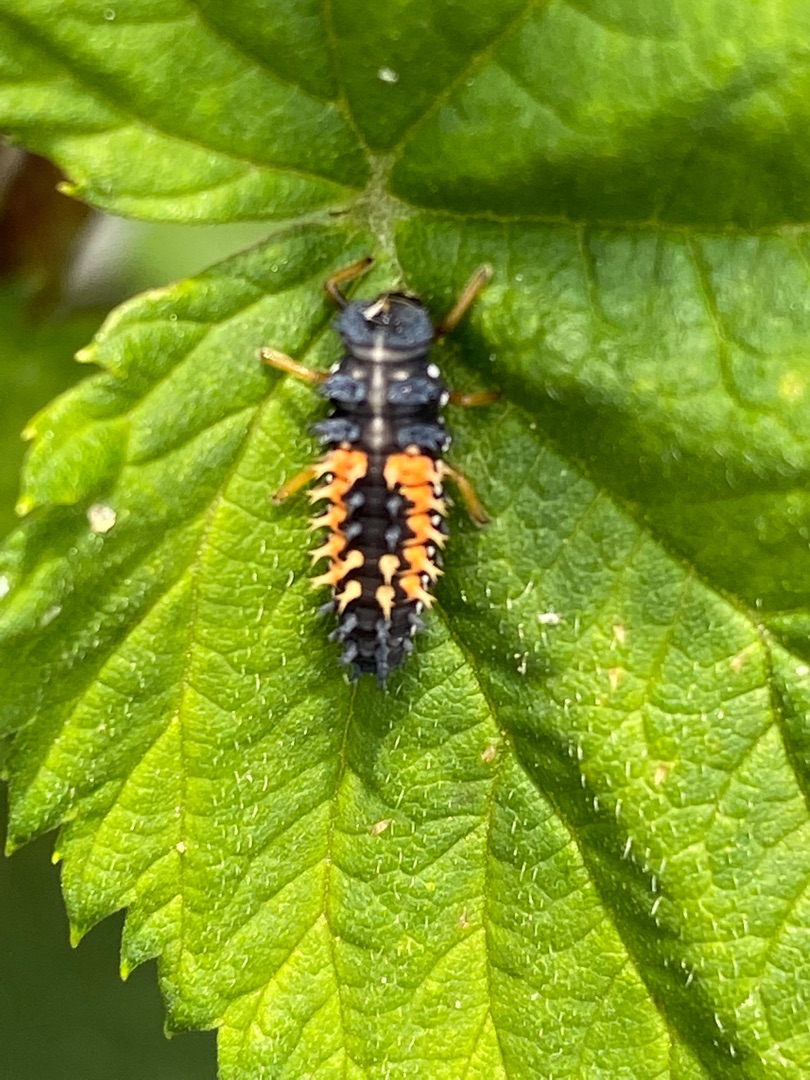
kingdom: Animalia
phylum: Arthropoda
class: Insecta
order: Coleoptera
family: Coccinellidae
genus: Harmonia
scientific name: Harmonia axyridis
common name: Harlekinmariehøne
